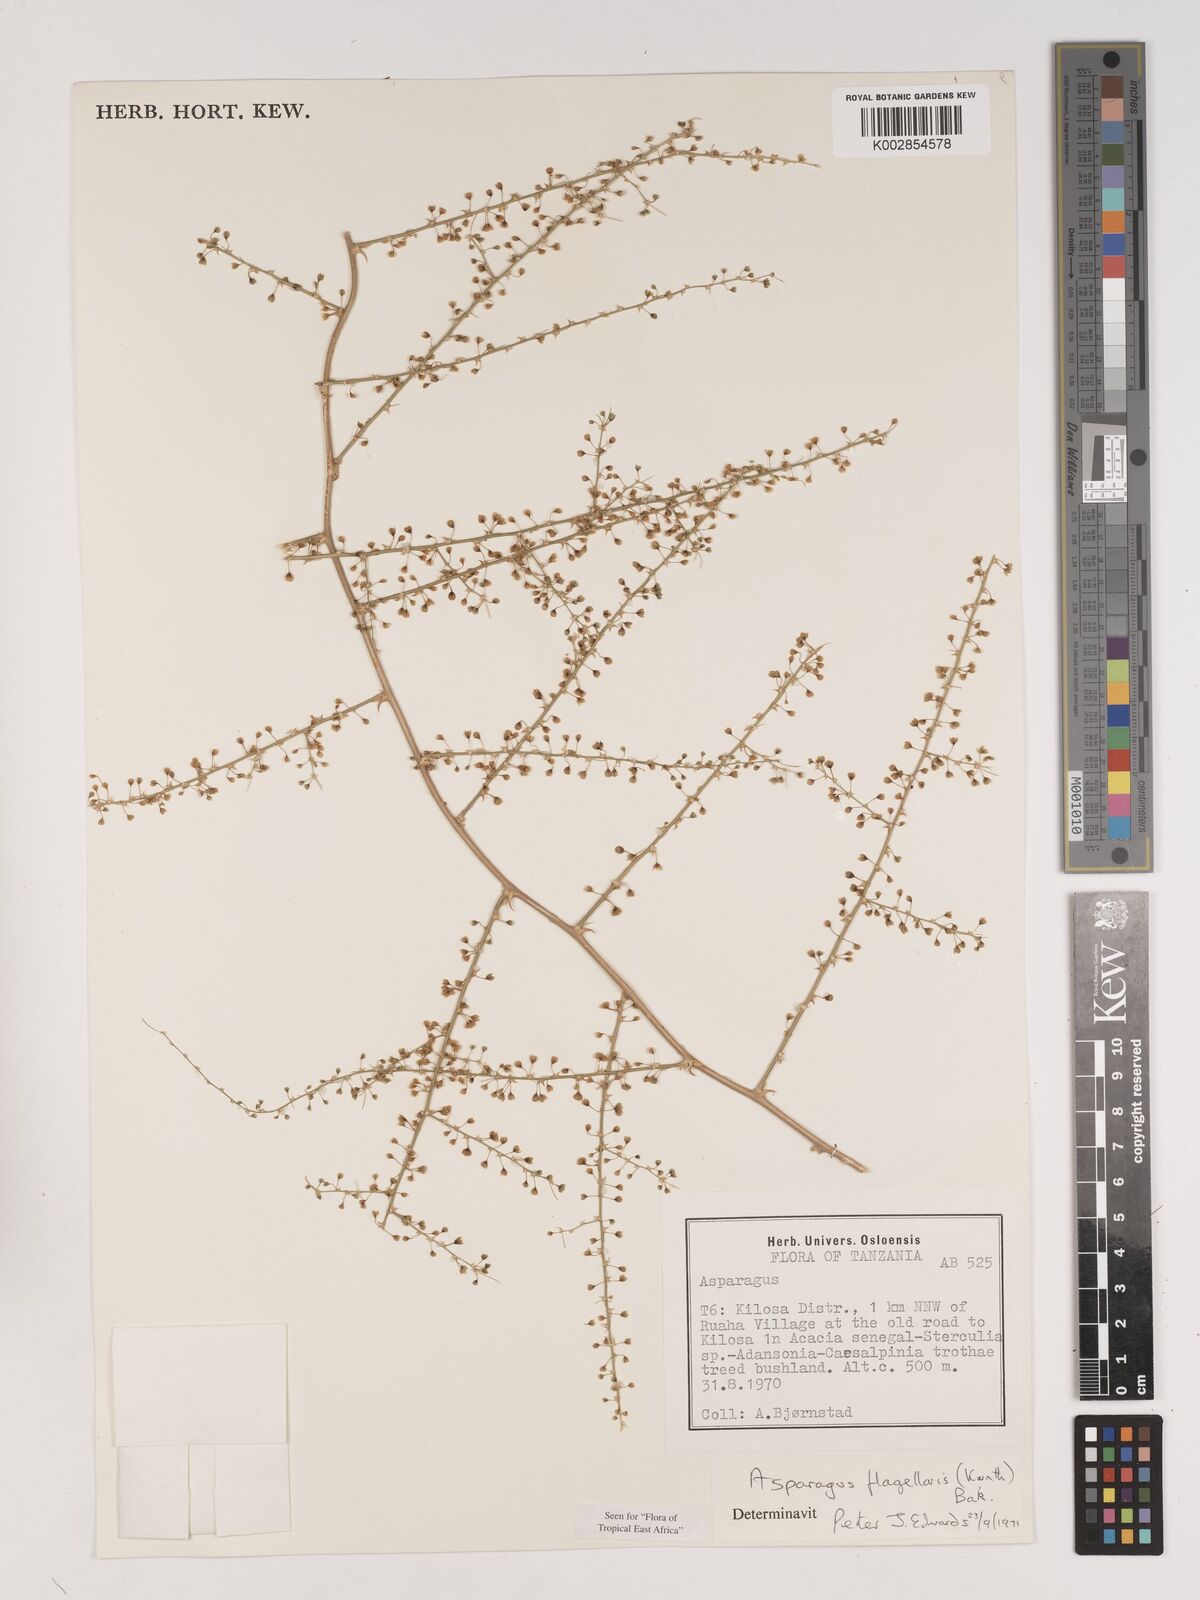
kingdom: Plantae
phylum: Tracheophyta
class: Liliopsida
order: Asparagales
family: Asparagaceae
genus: Asparagus
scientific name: Asparagus flagellaris
